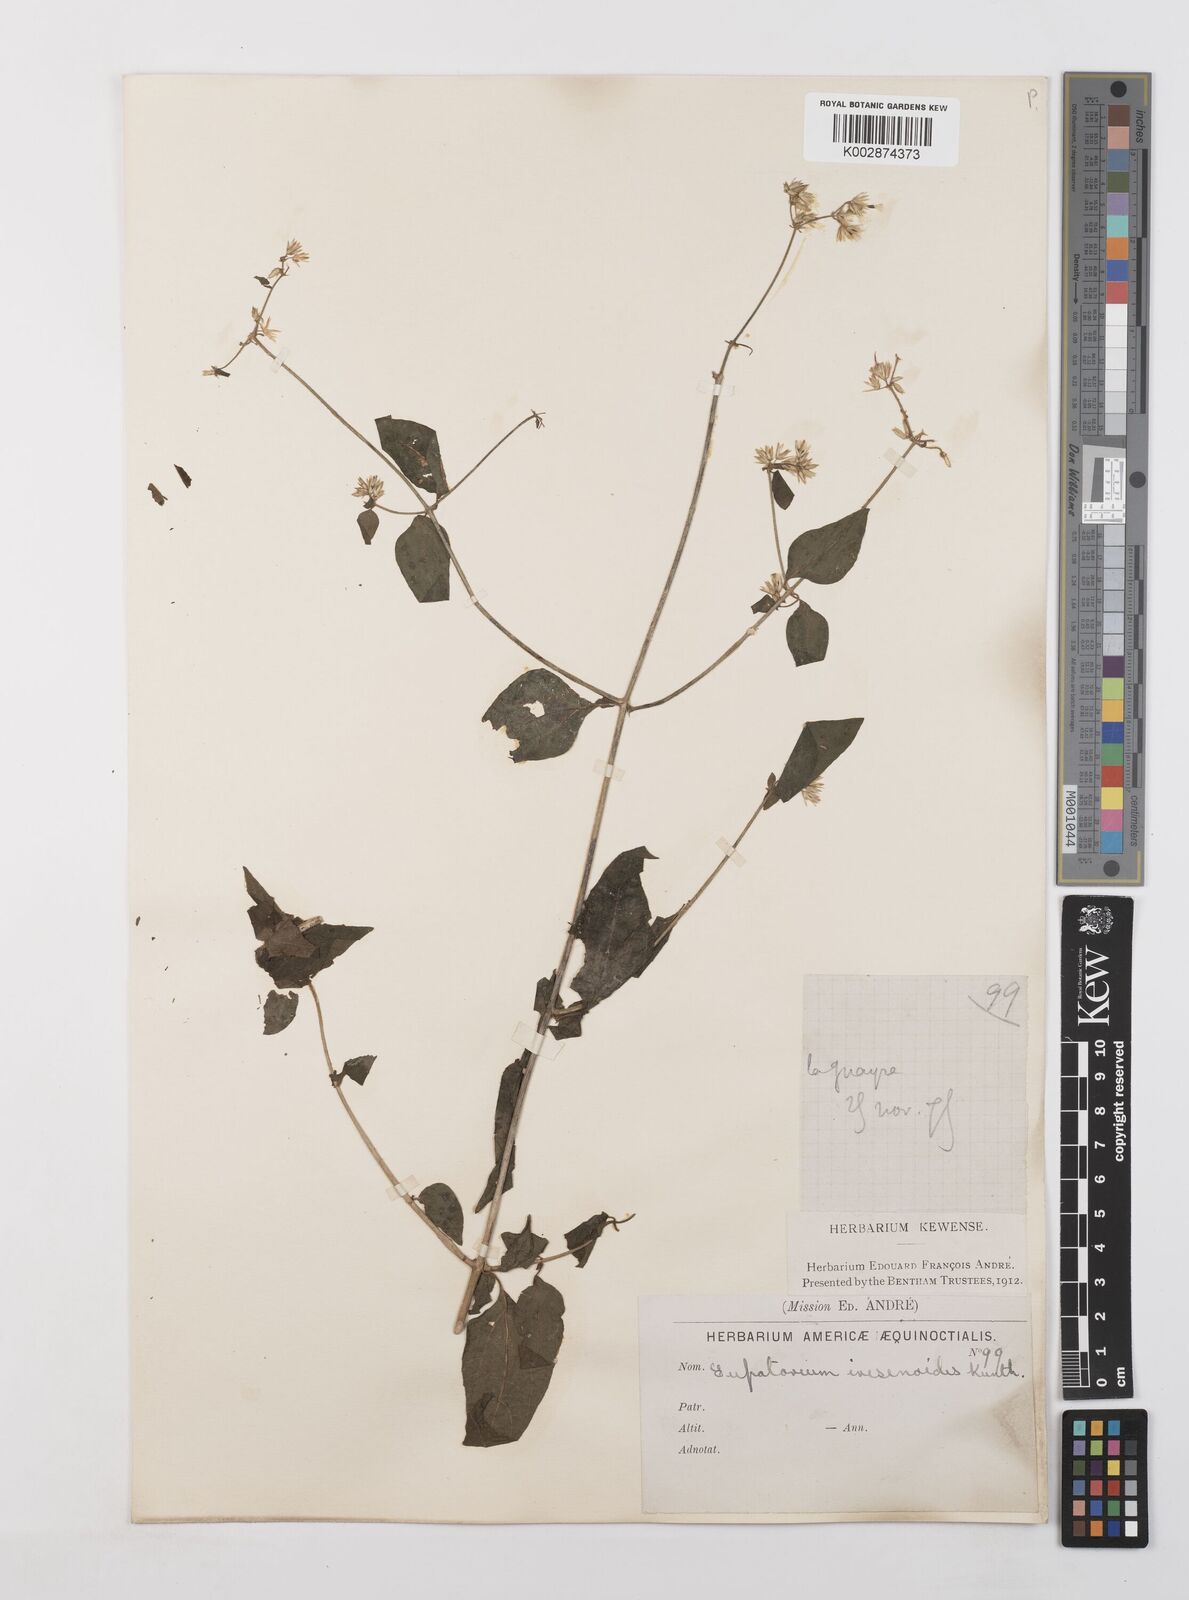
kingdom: Plantae
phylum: Tracheophyta
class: Magnoliopsida
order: Asterales
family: Asteraceae
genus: Condylidium
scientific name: Condylidium iresinoides
